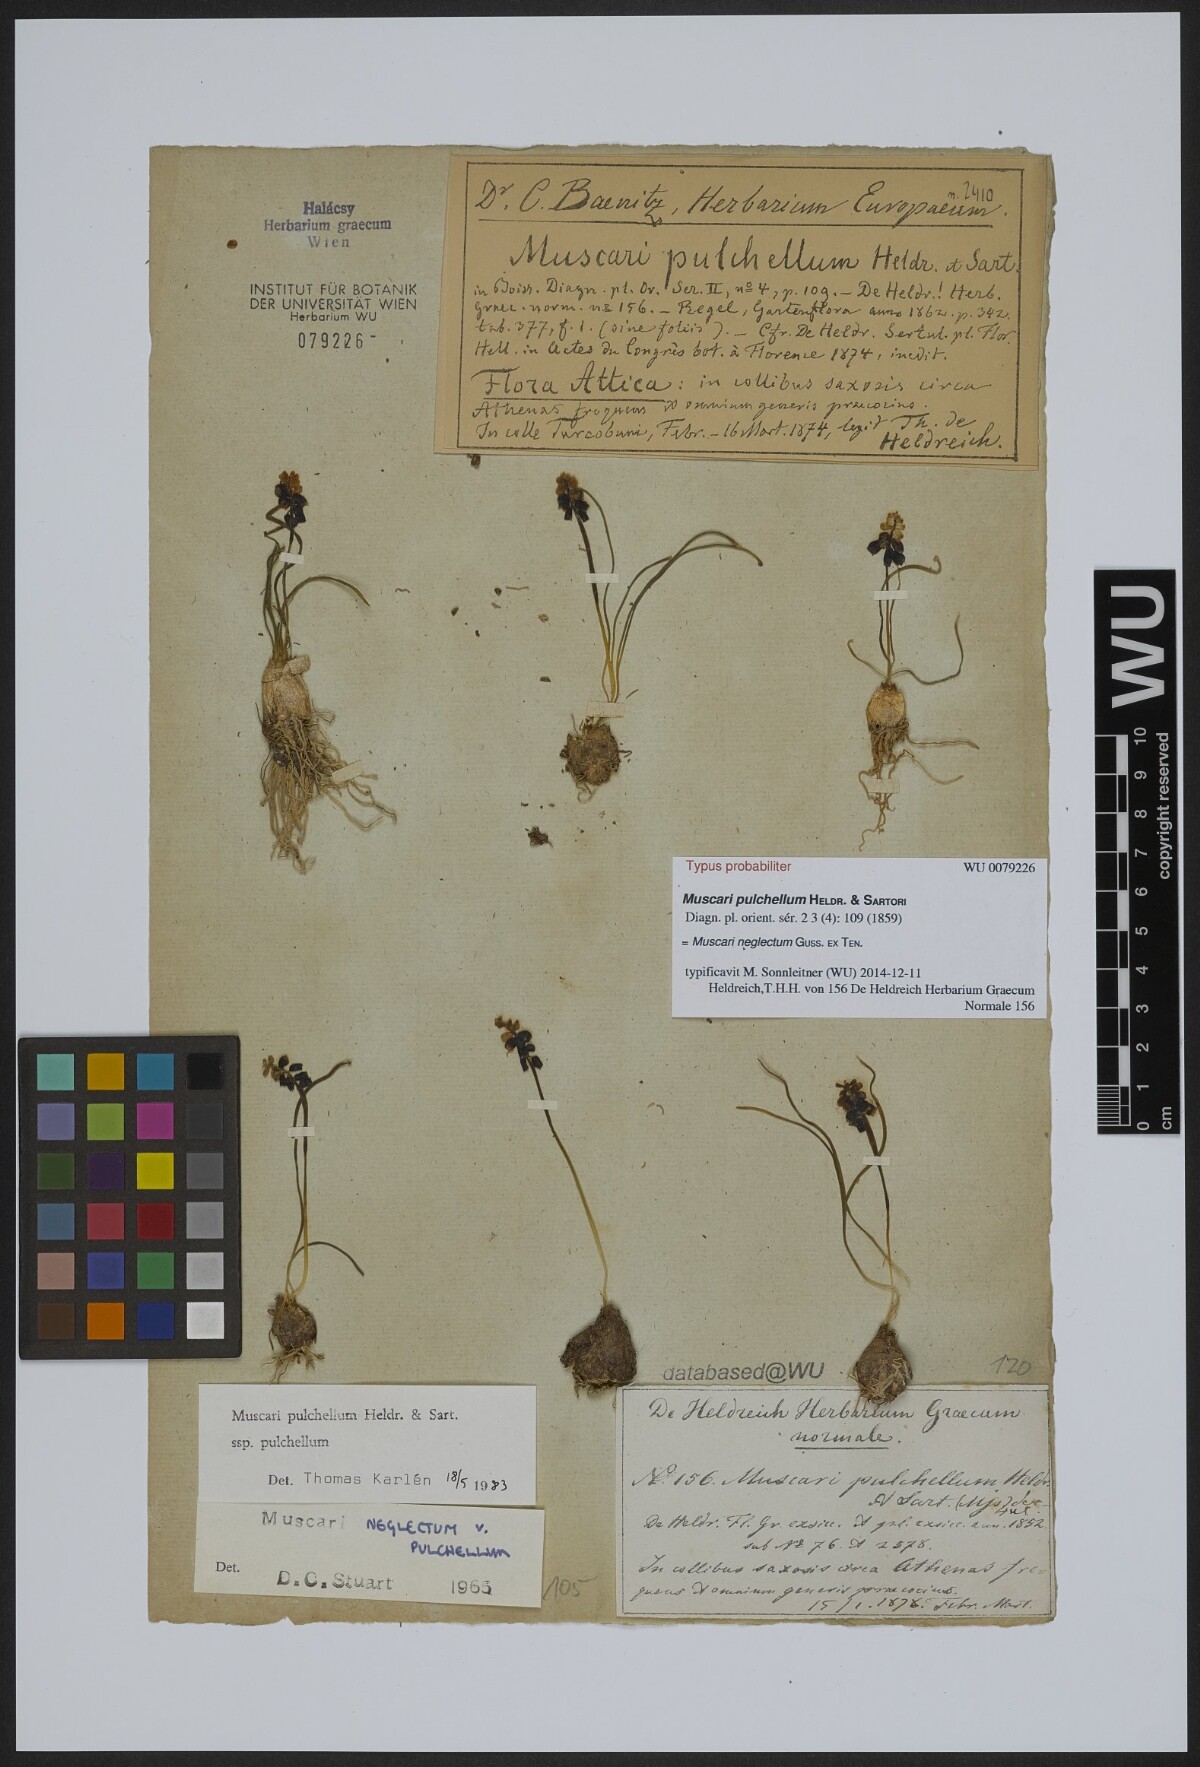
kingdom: Plantae
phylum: Tracheophyta
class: Liliopsida
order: Asparagales
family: Asparagaceae
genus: Muscari
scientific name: Muscari pulchellum
